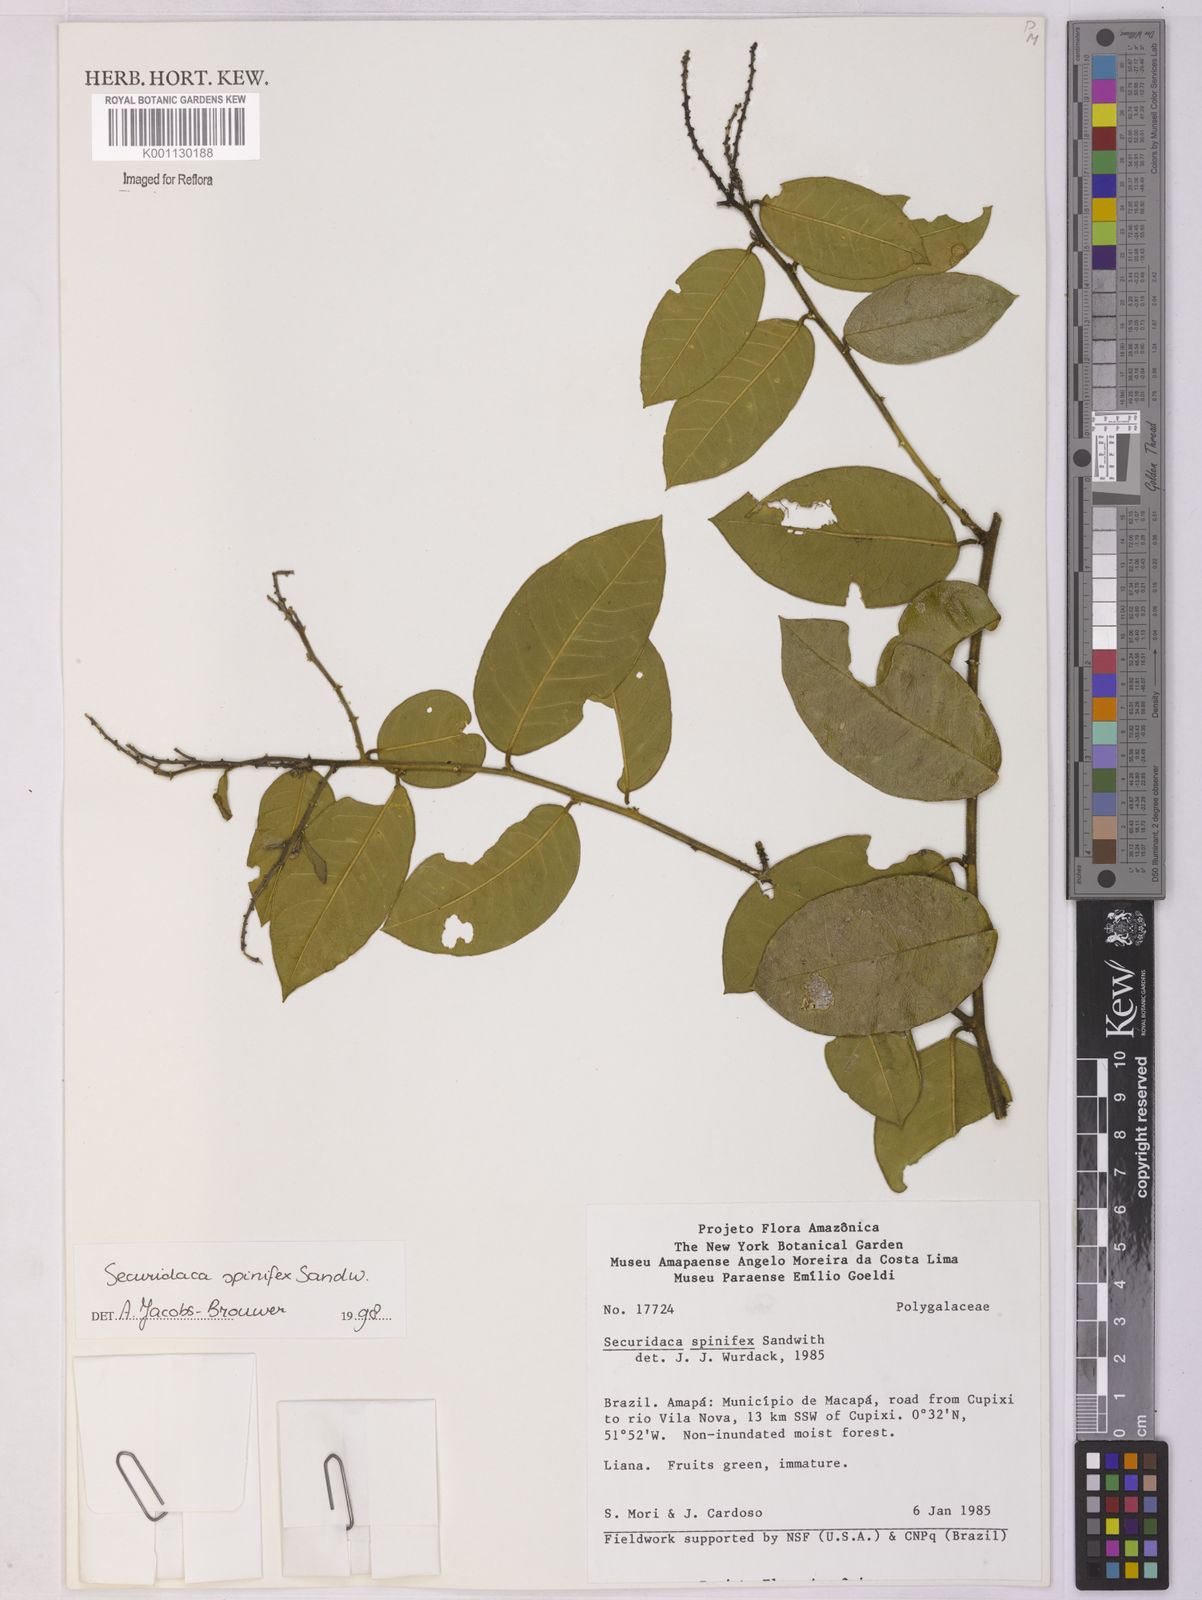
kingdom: Plantae
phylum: Tracheophyta
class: Magnoliopsida
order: Fabales
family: Polygalaceae
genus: Securidaca
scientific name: Securidaca spinifex
